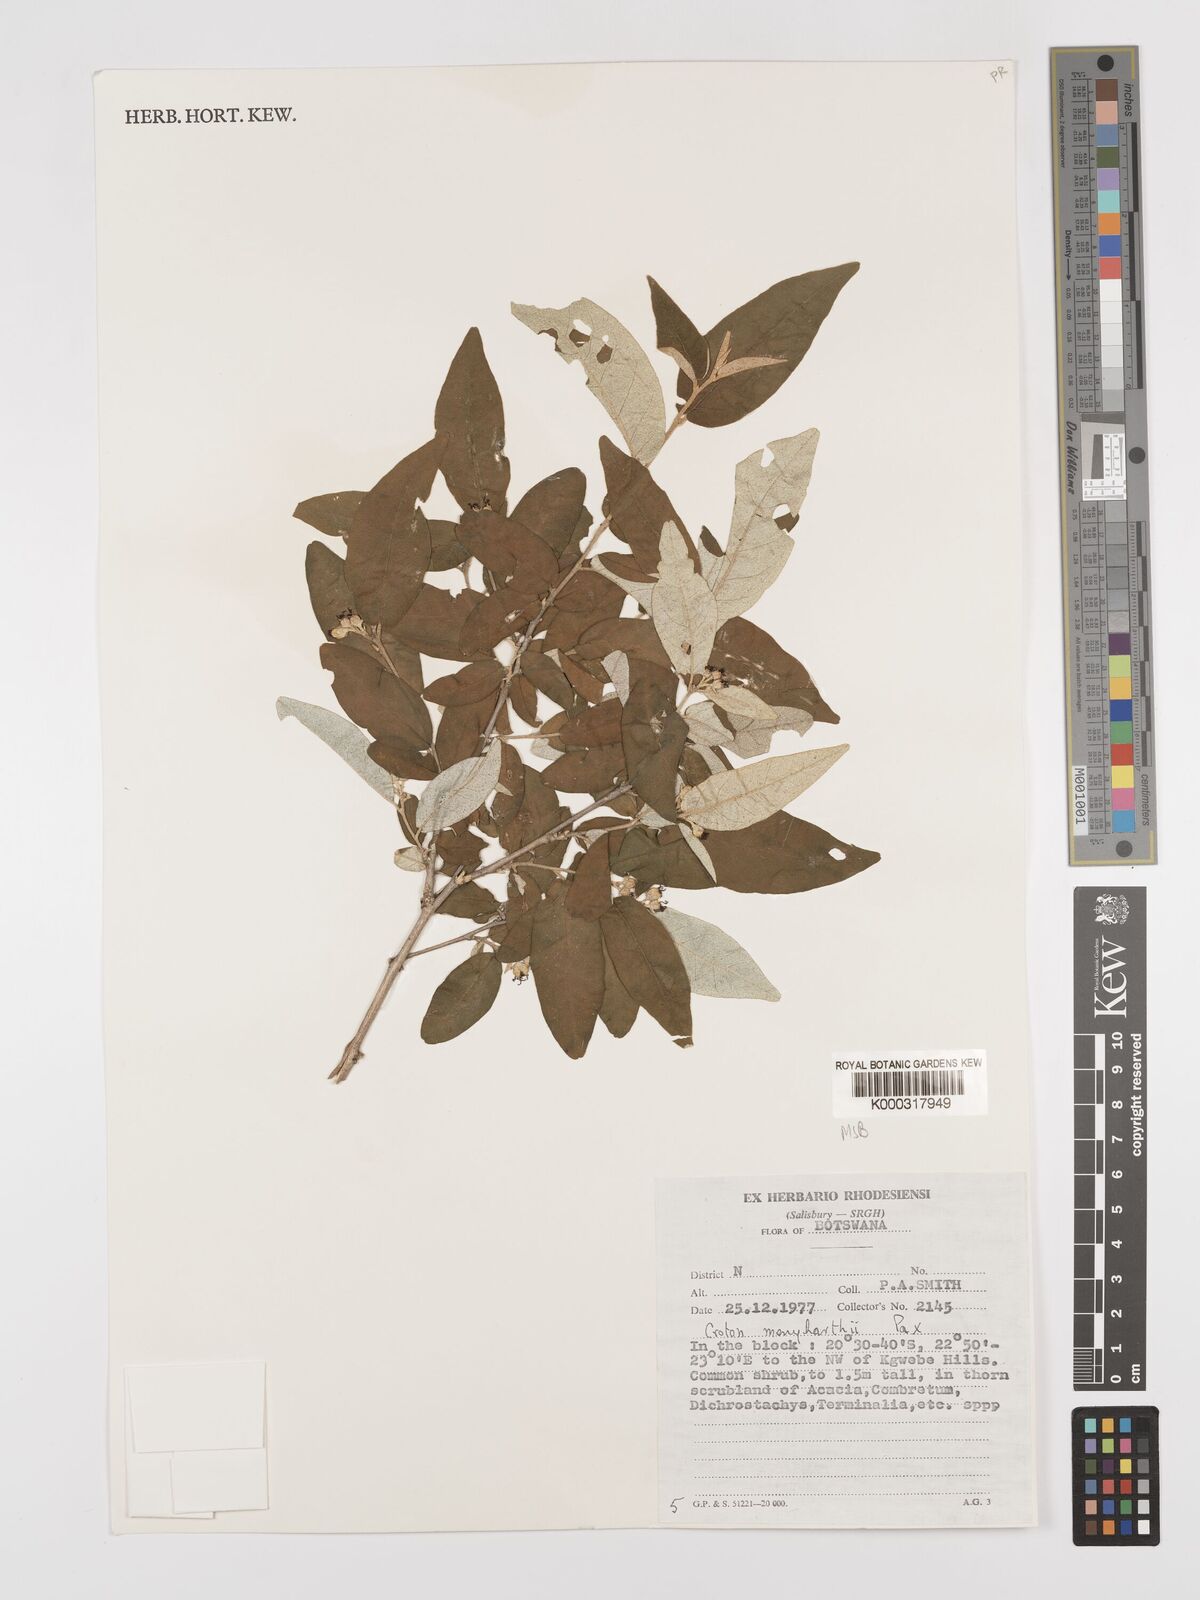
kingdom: Plantae
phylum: Tracheophyta
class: Magnoliopsida
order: Malpighiales
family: Euphorbiaceae
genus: Croton
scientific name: Croton menyharthii
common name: Rough-leaved croton
